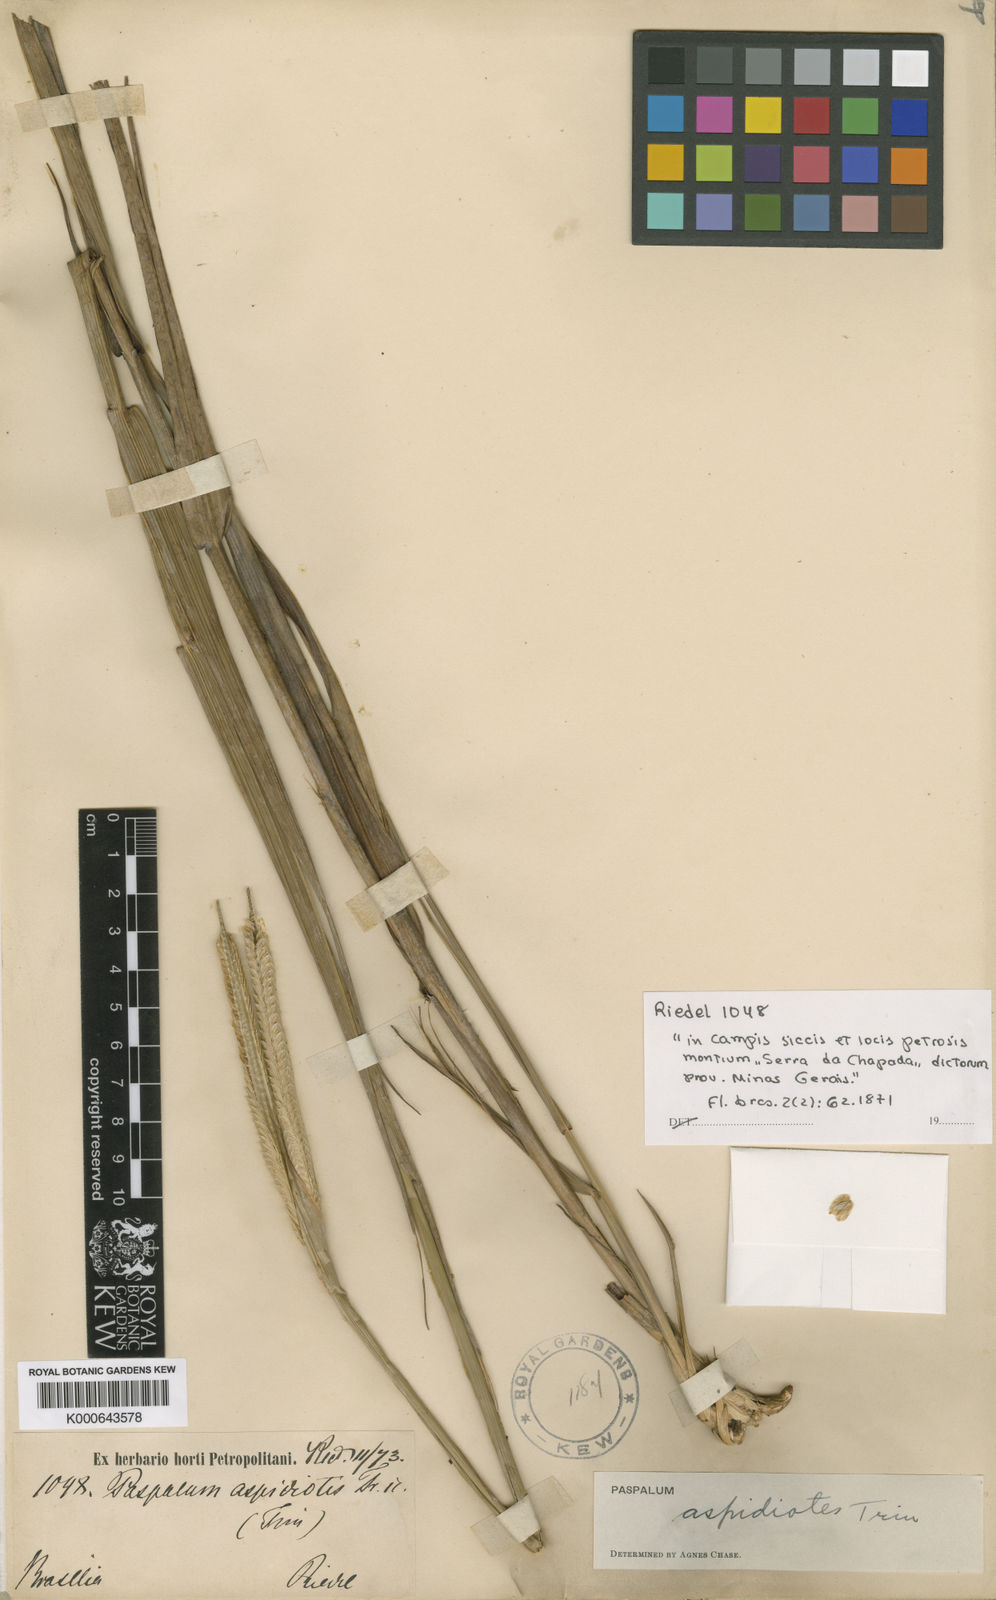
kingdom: Plantae
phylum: Tracheophyta
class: Liliopsida
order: Poales
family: Poaceae
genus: Paspalum
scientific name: Paspalum aspidiotes
